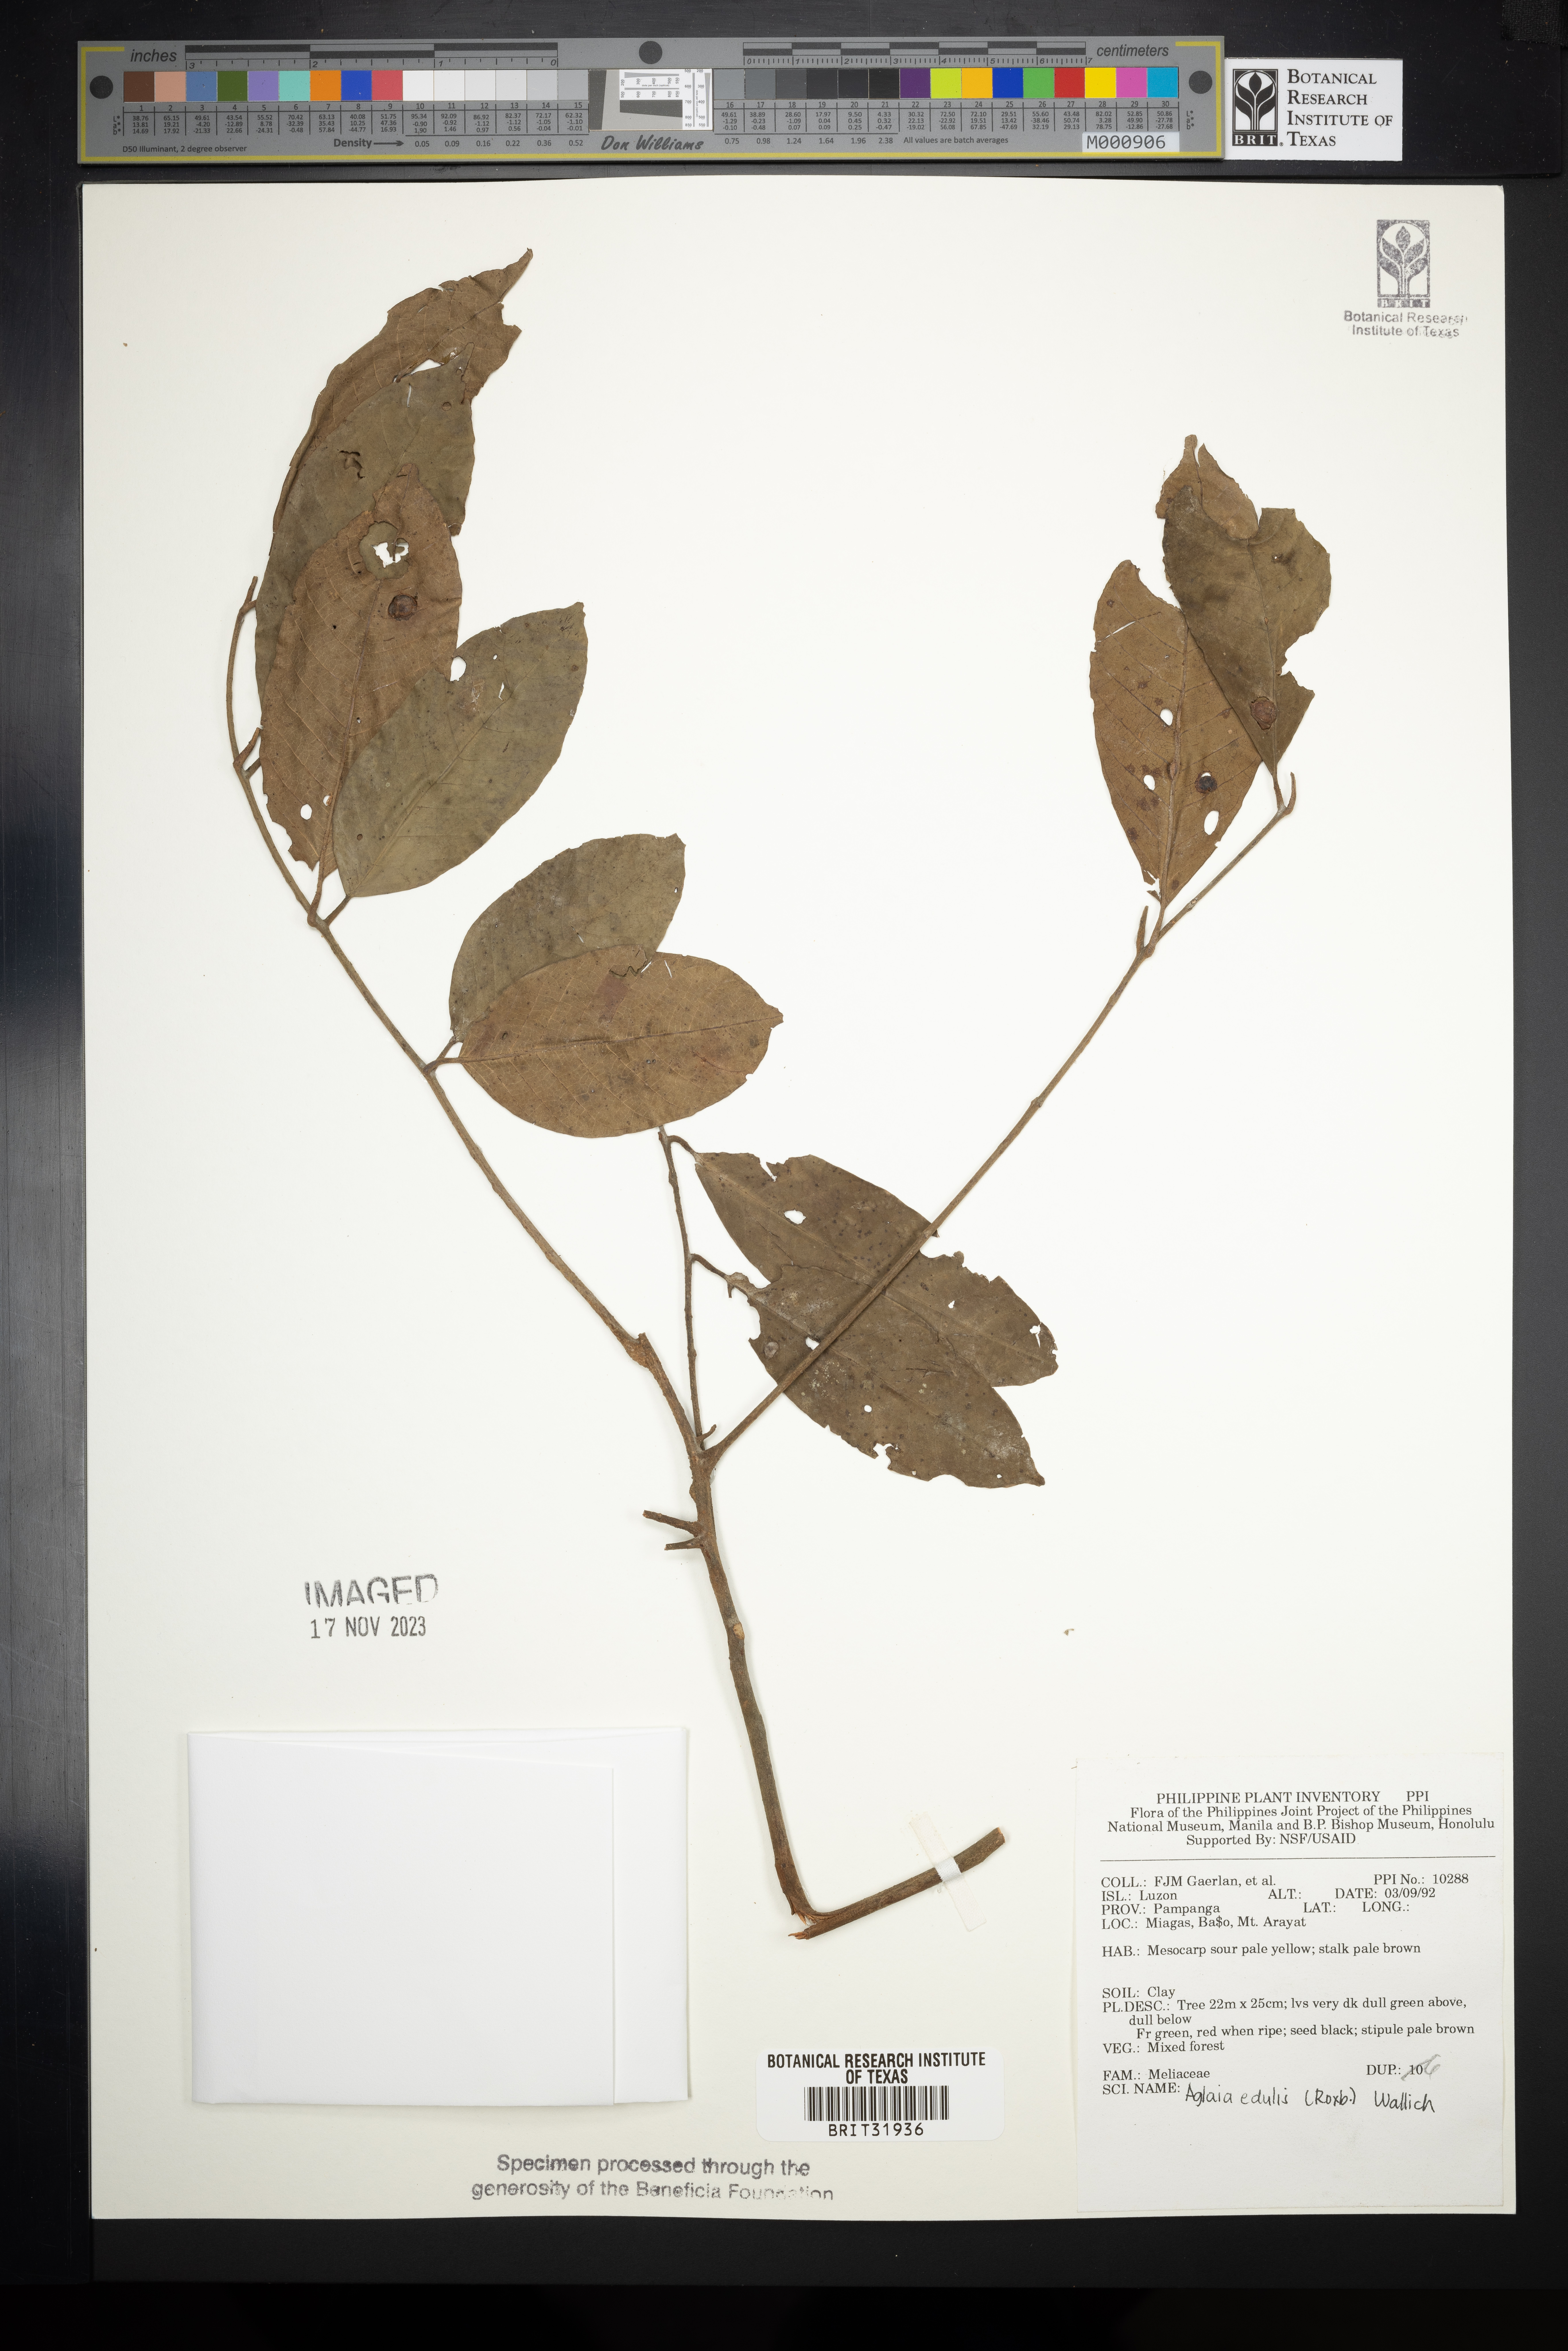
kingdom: Plantae
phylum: Tracheophyta
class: Magnoliopsida
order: Sapindales
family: Meliaceae
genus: Aglaia
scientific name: Aglaia edulis
